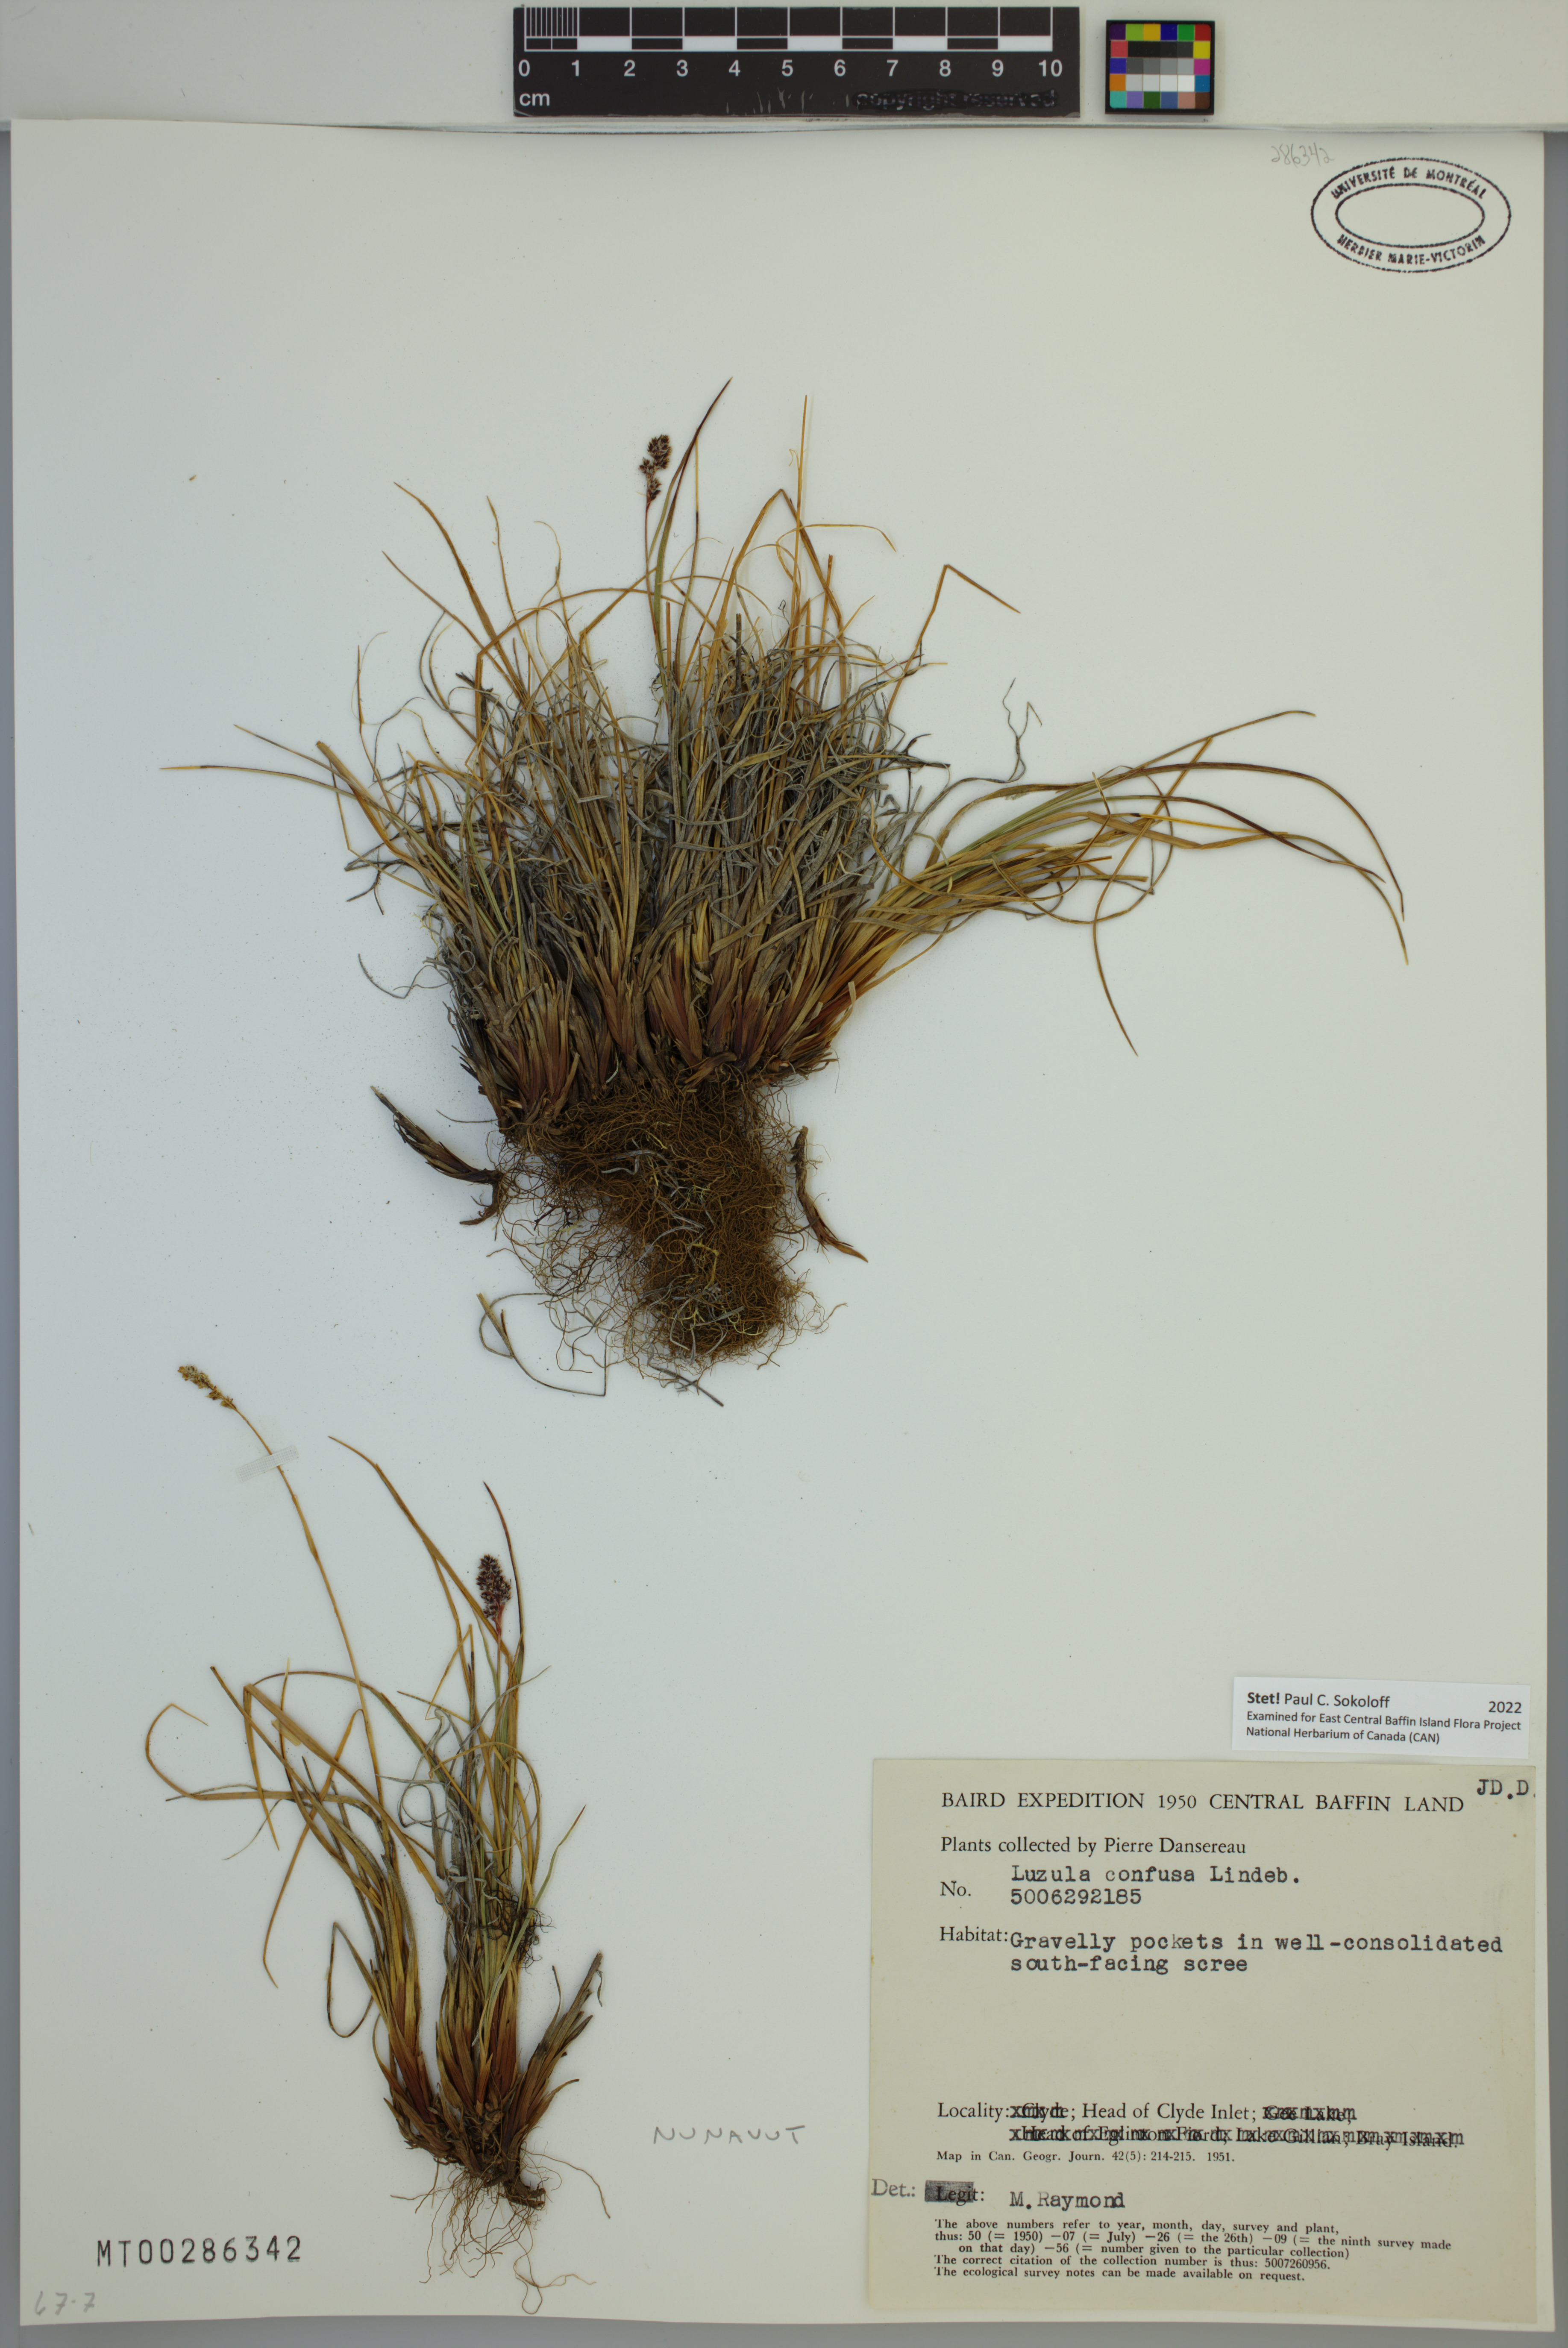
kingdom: Plantae
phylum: Tracheophyta
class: Liliopsida
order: Poales
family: Juncaceae
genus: Luzula
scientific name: Luzula confusa
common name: Northern wood rush
